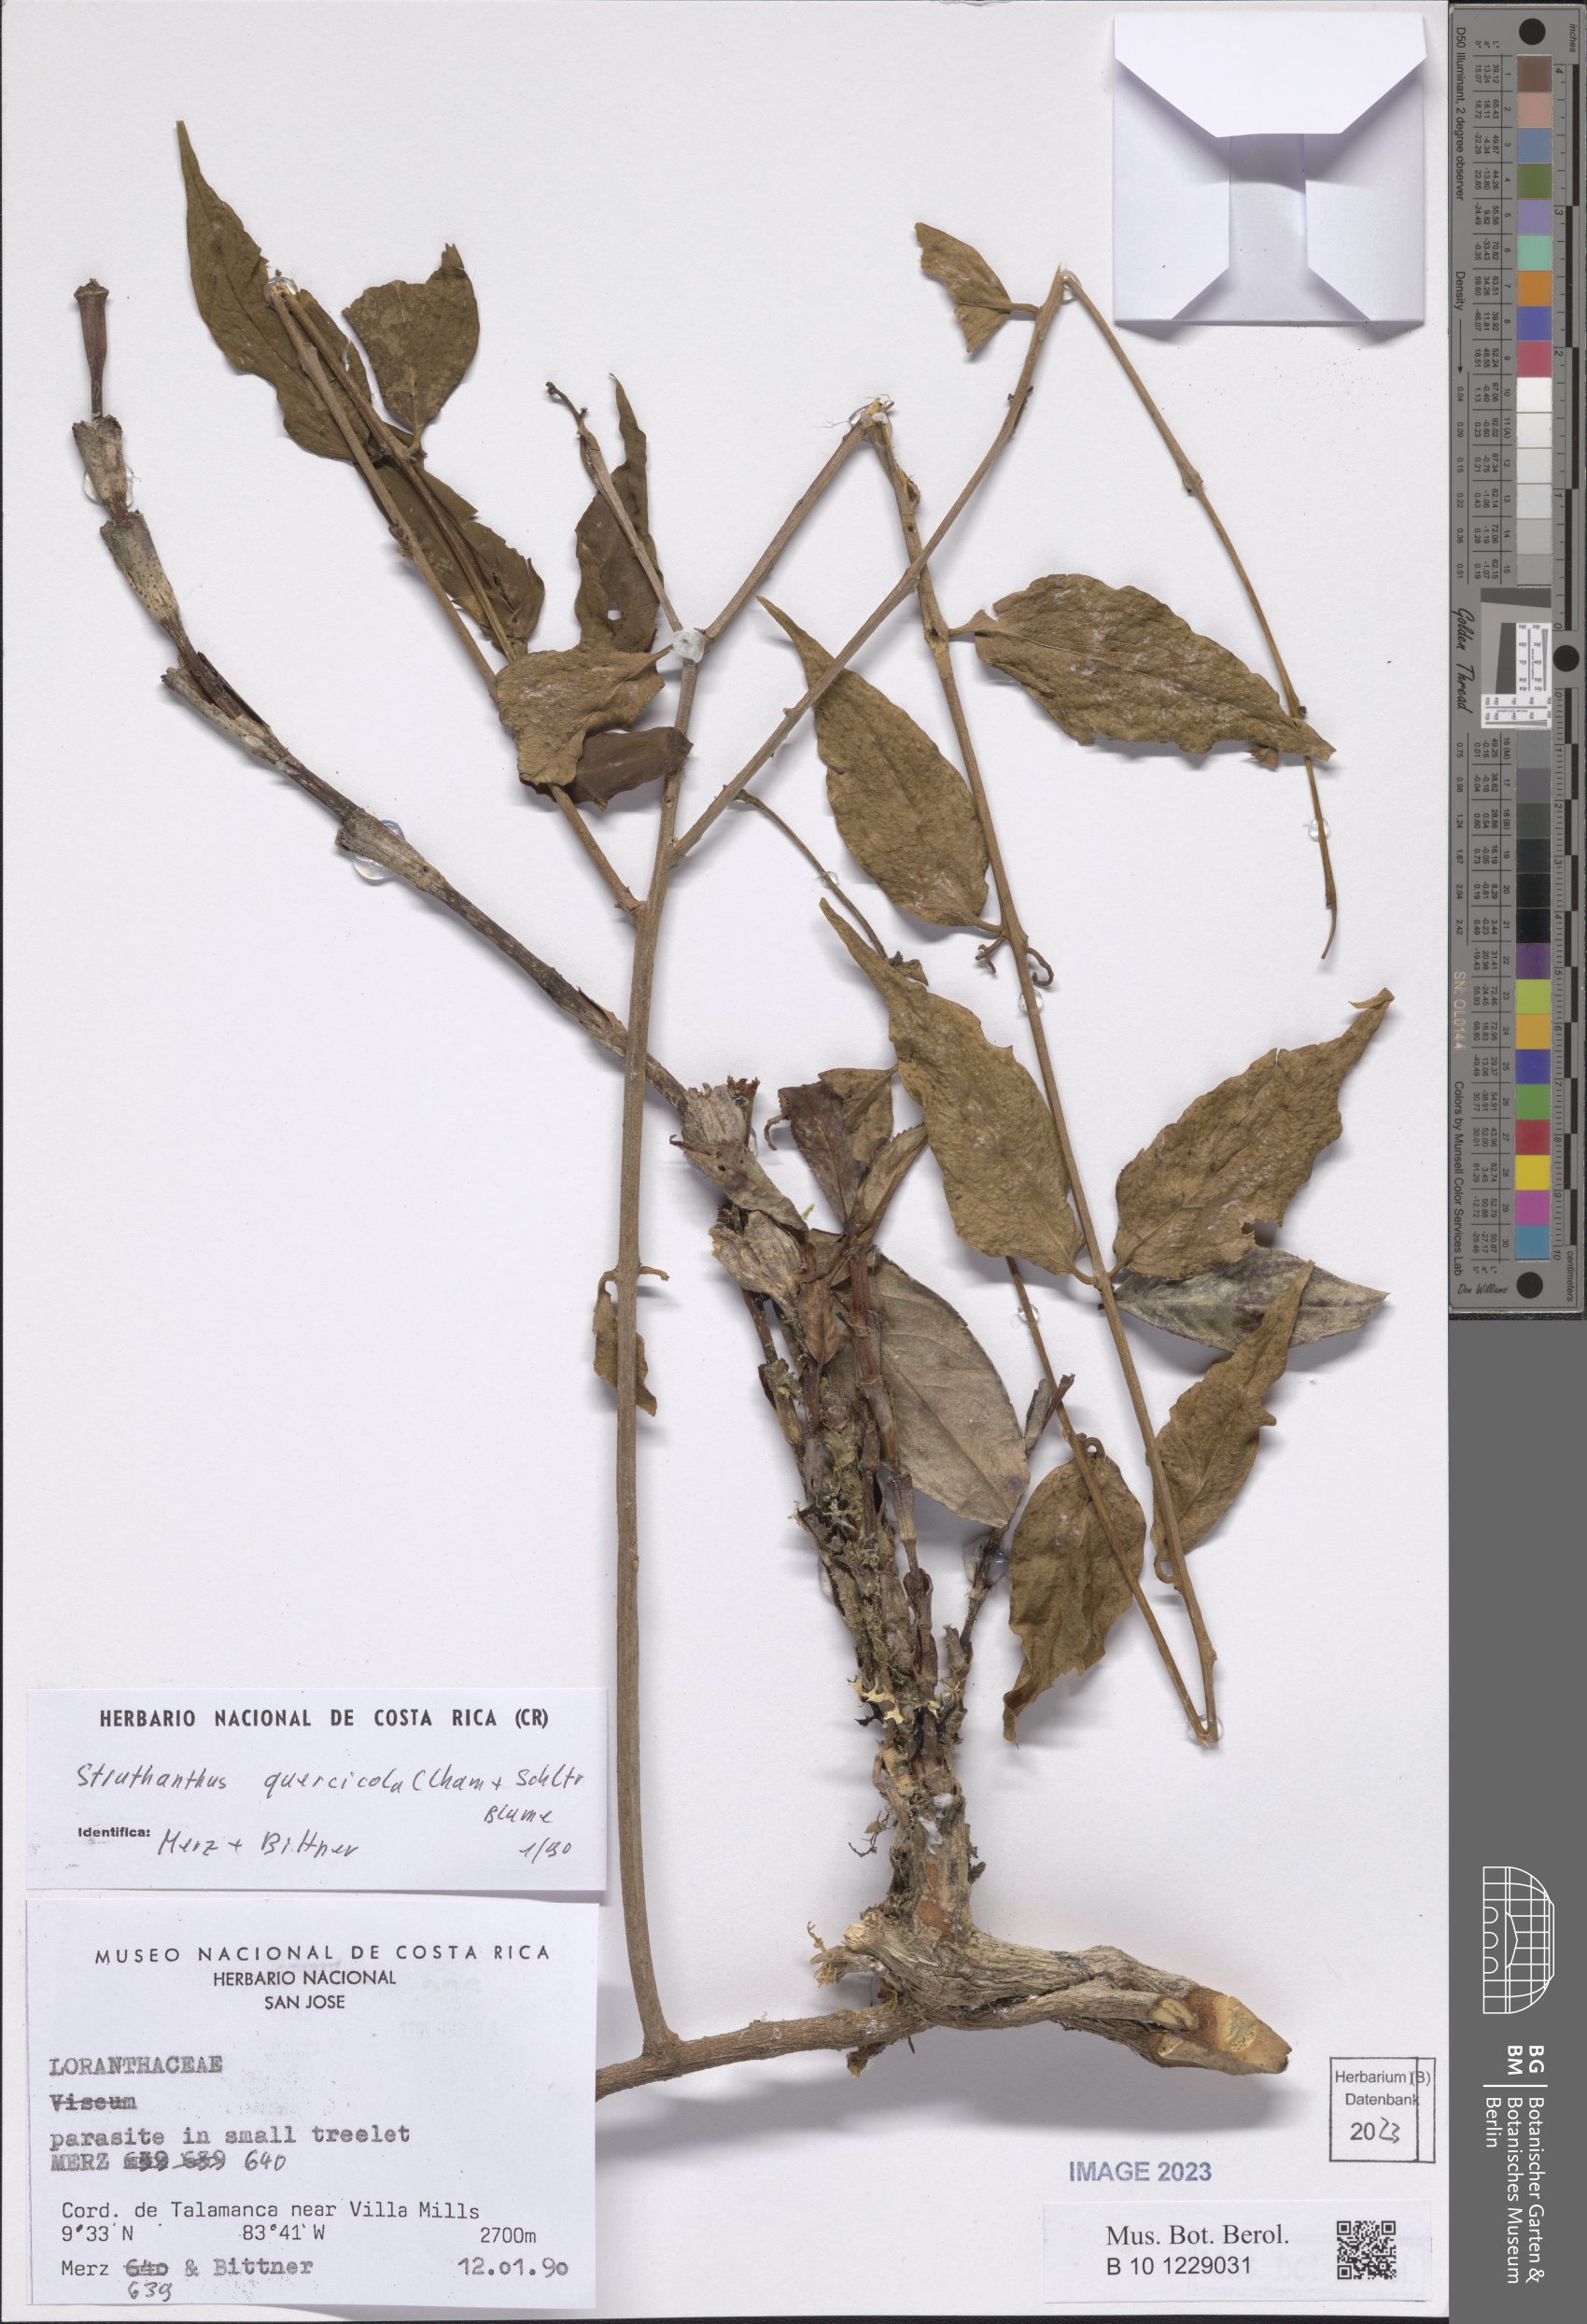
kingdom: Plantae
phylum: Tracheophyta
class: Magnoliopsida
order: Santalales
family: Loranthaceae
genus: Struthanthus
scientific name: Struthanthus quercicola
